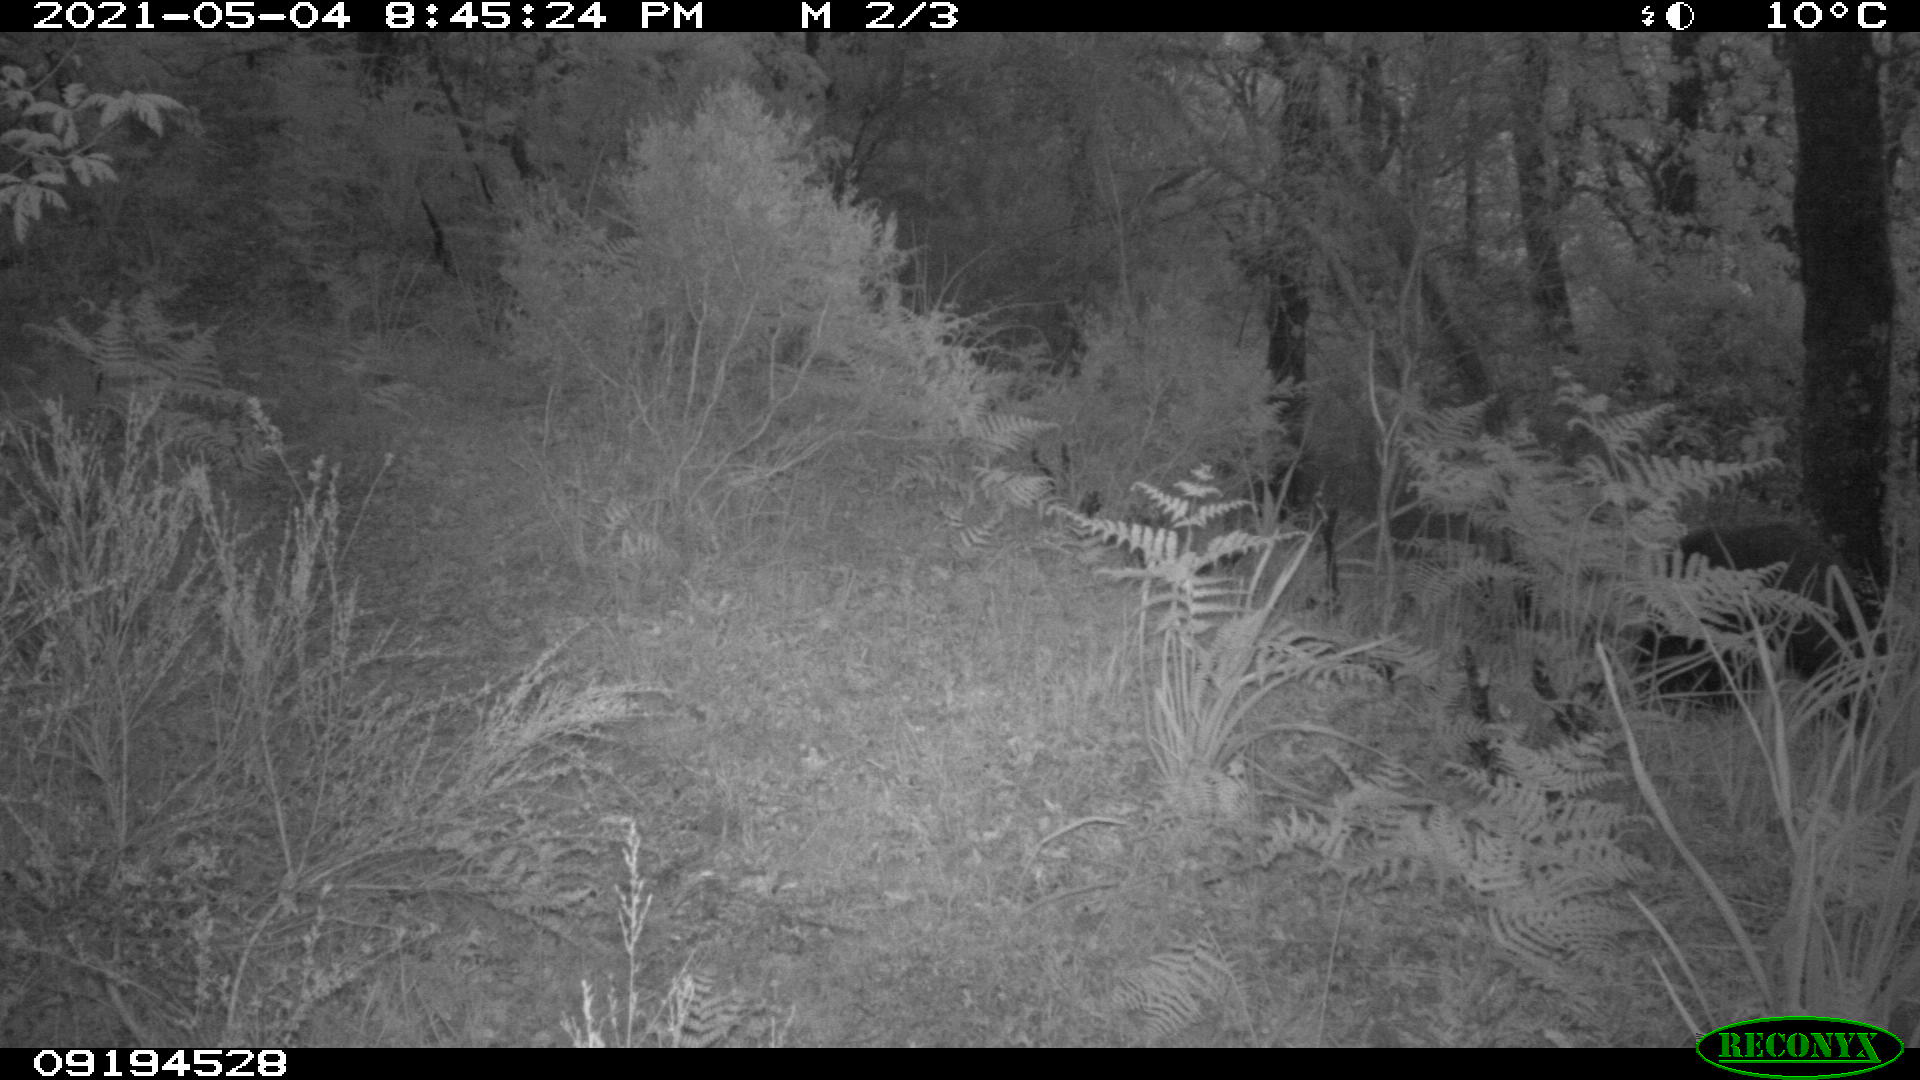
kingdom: Animalia
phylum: Chordata
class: Mammalia
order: Artiodactyla
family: Suidae
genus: Sus
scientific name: Sus scrofa
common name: Wild boar
